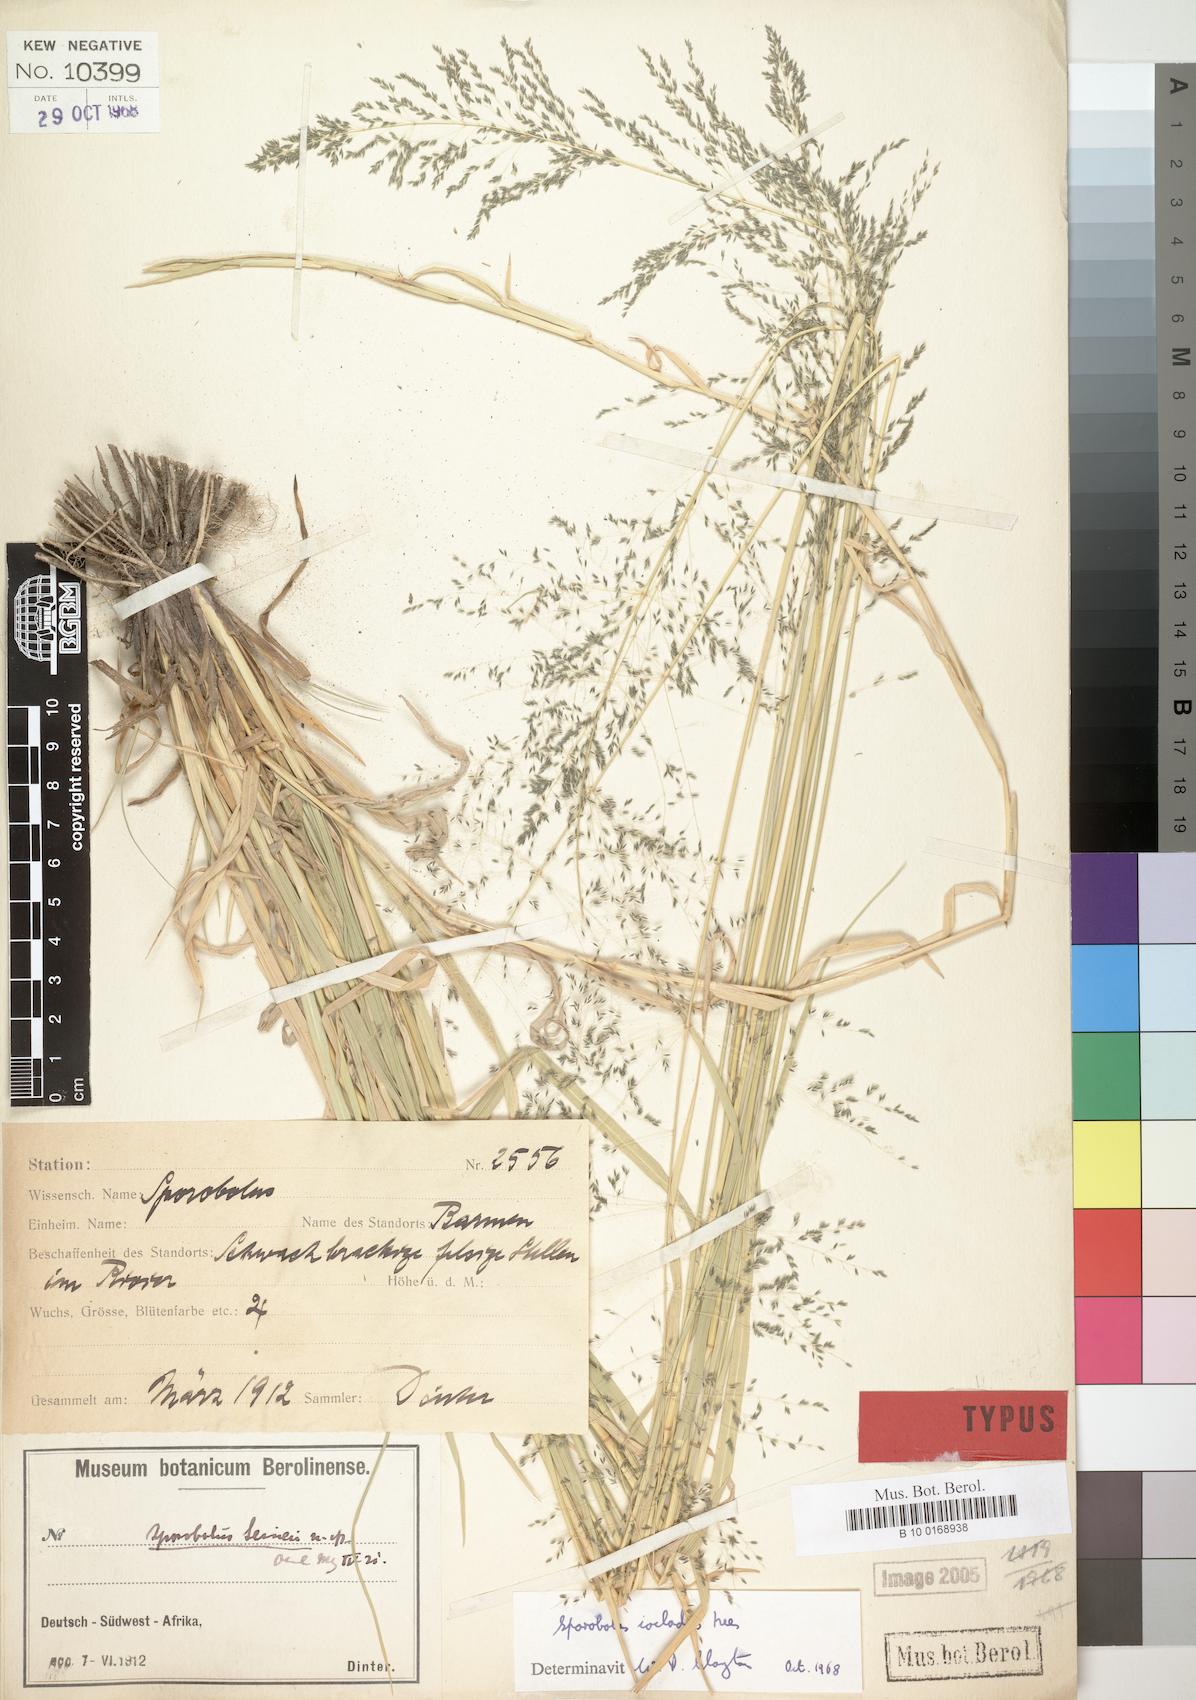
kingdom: Plantae
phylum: Tracheophyta
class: Liliopsida
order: Poales
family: Poaceae
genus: Sporobolus
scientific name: Sporobolus ioclados
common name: Pan dropseed
